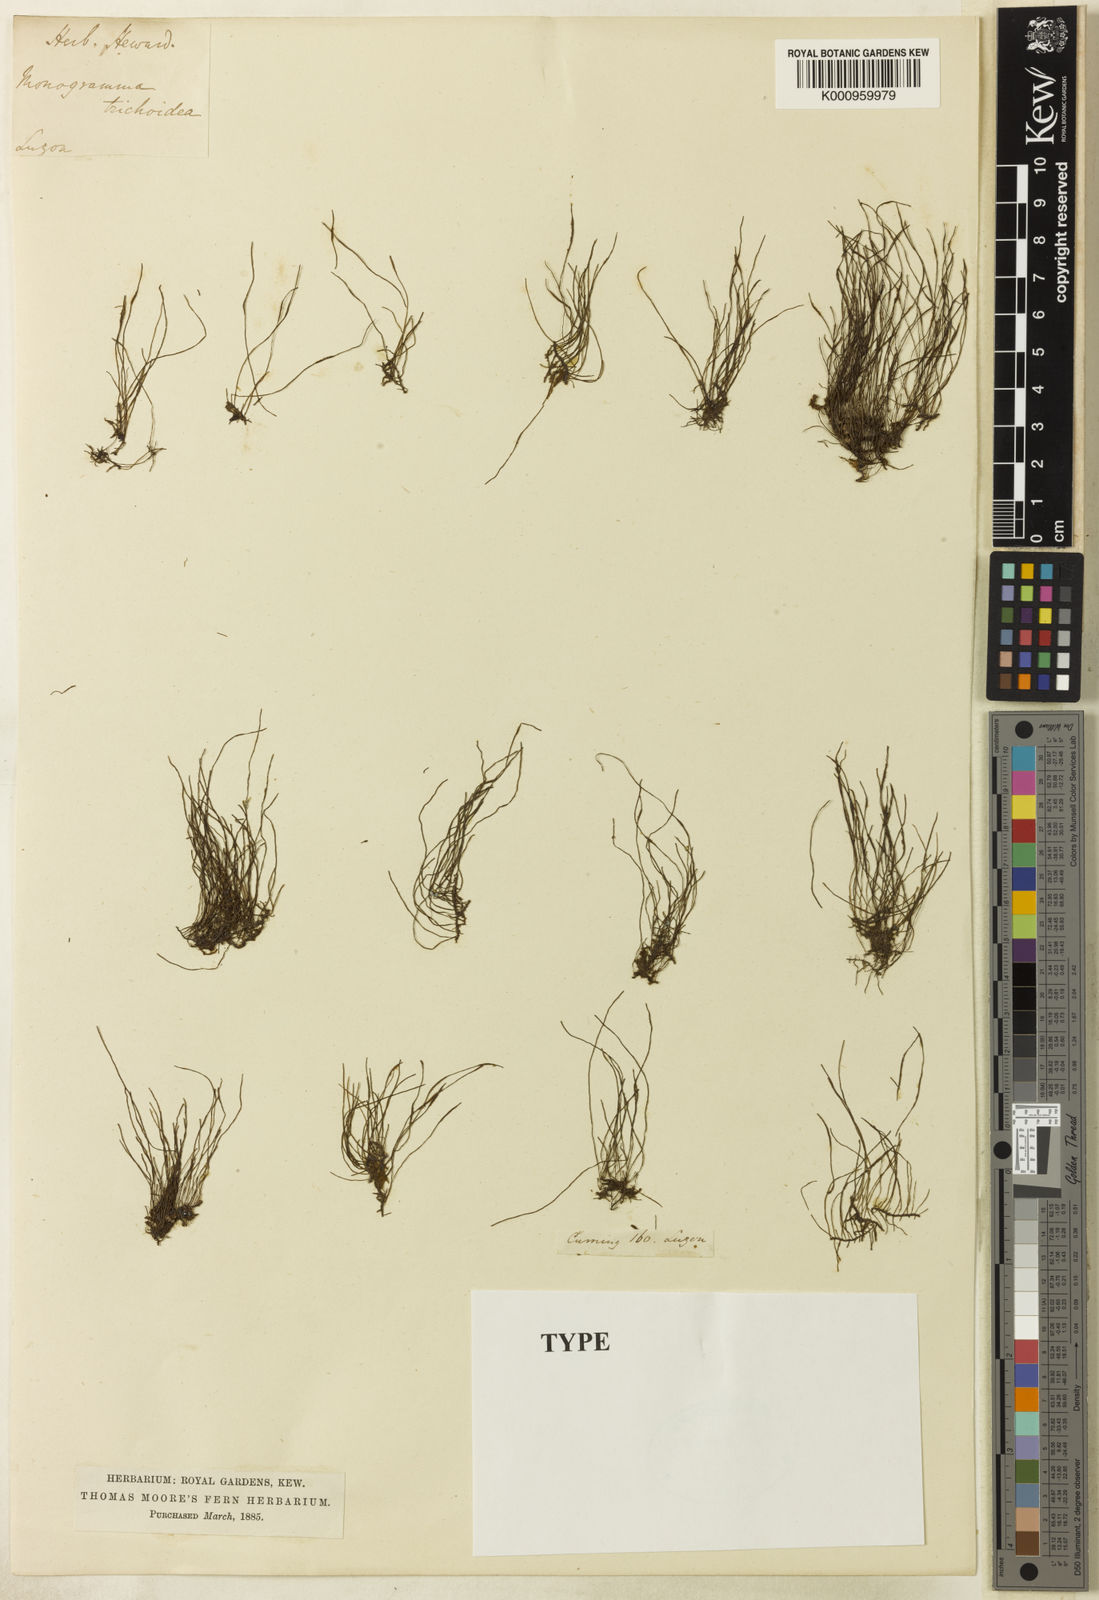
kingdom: Plantae
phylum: Tracheophyta
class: Polypodiopsida
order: Polypodiales
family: Pteridaceae
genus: Vaginularia
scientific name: Vaginularia trichoidea
